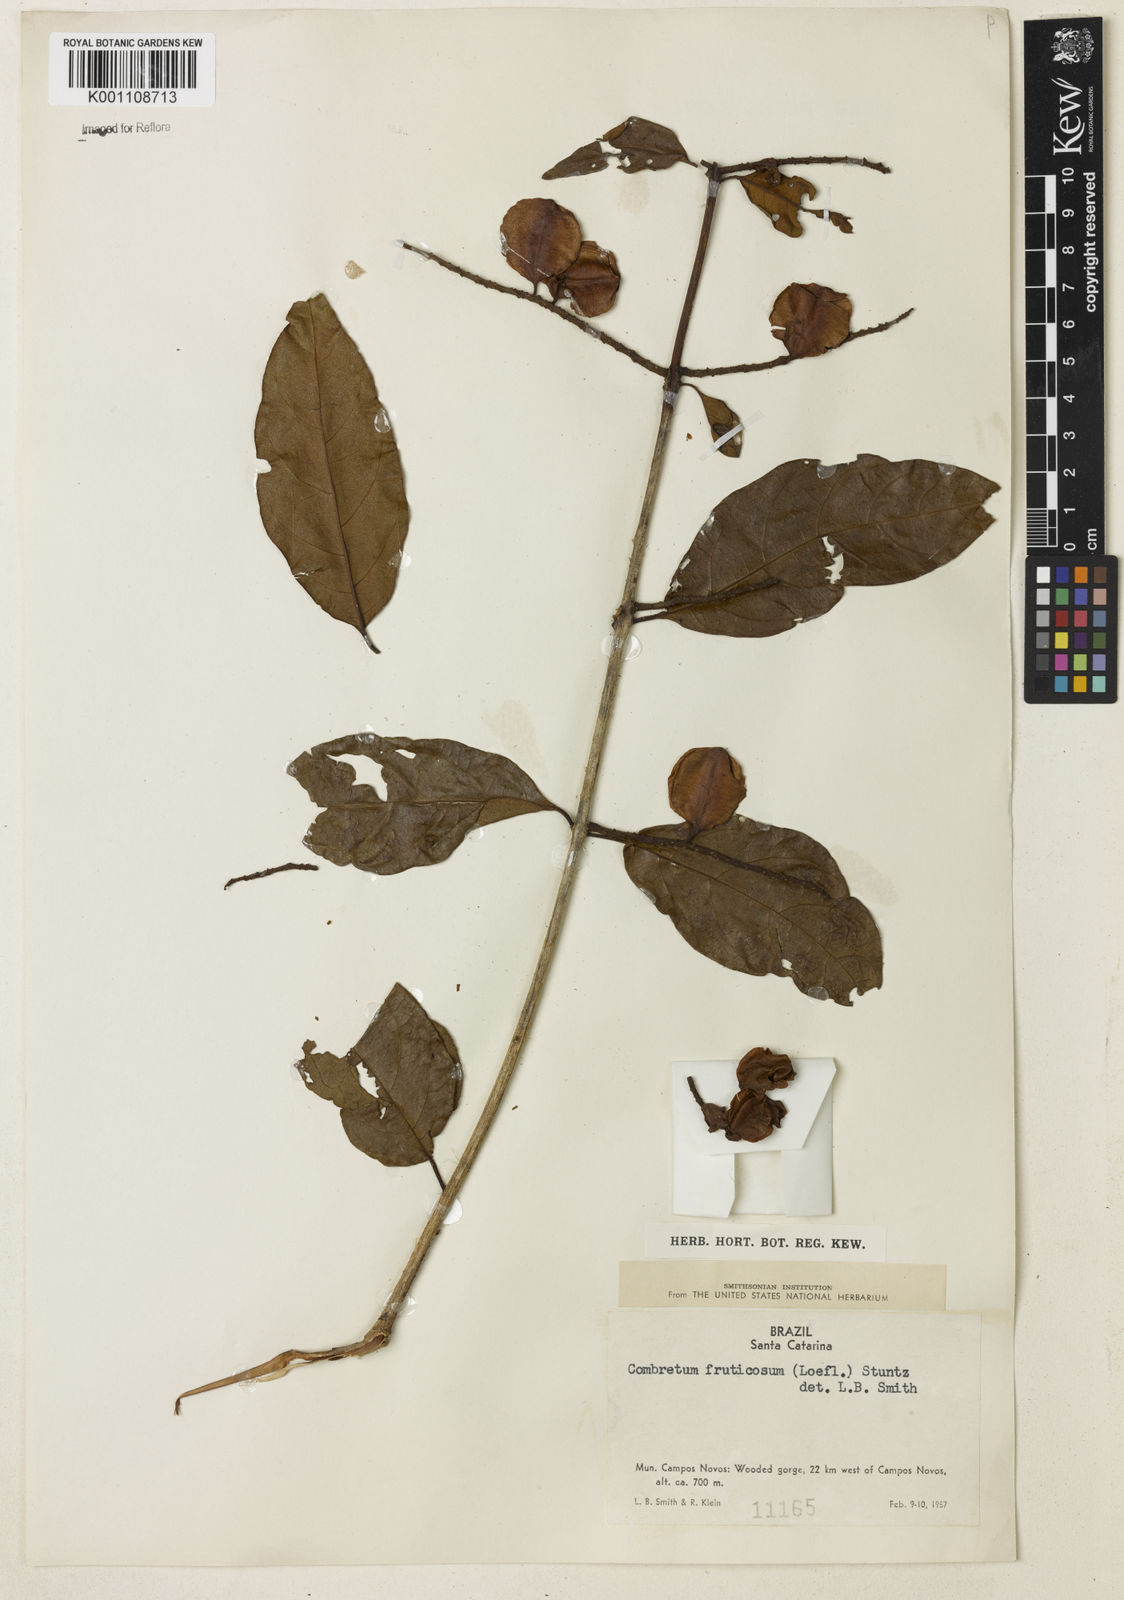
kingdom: Plantae
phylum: Tracheophyta
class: Magnoliopsida
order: Myrtales
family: Combretaceae
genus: Combretum
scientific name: Combretum fruticosum
